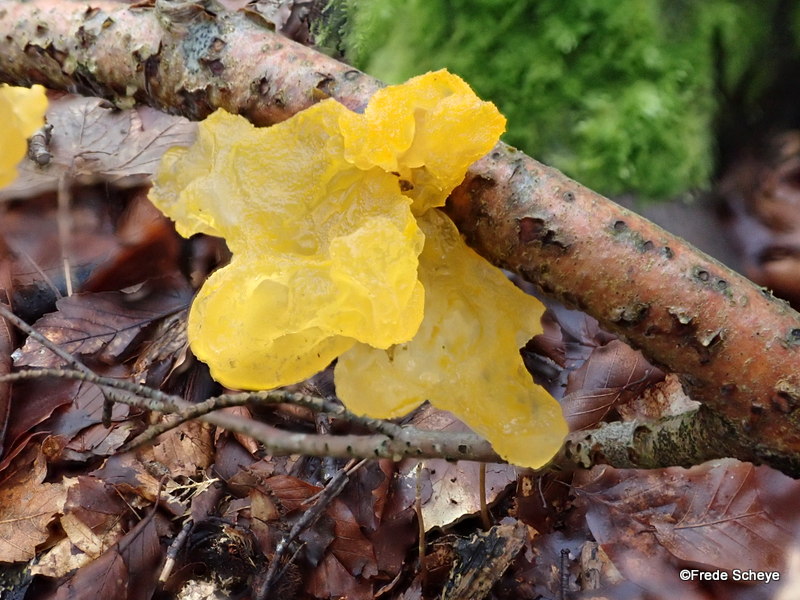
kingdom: Fungi
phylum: Basidiomycota
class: Tremellomycetes
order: Tremellales
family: Tremellaceae
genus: Tremella
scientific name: Tremella mesenterica
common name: gul bævresvamp
